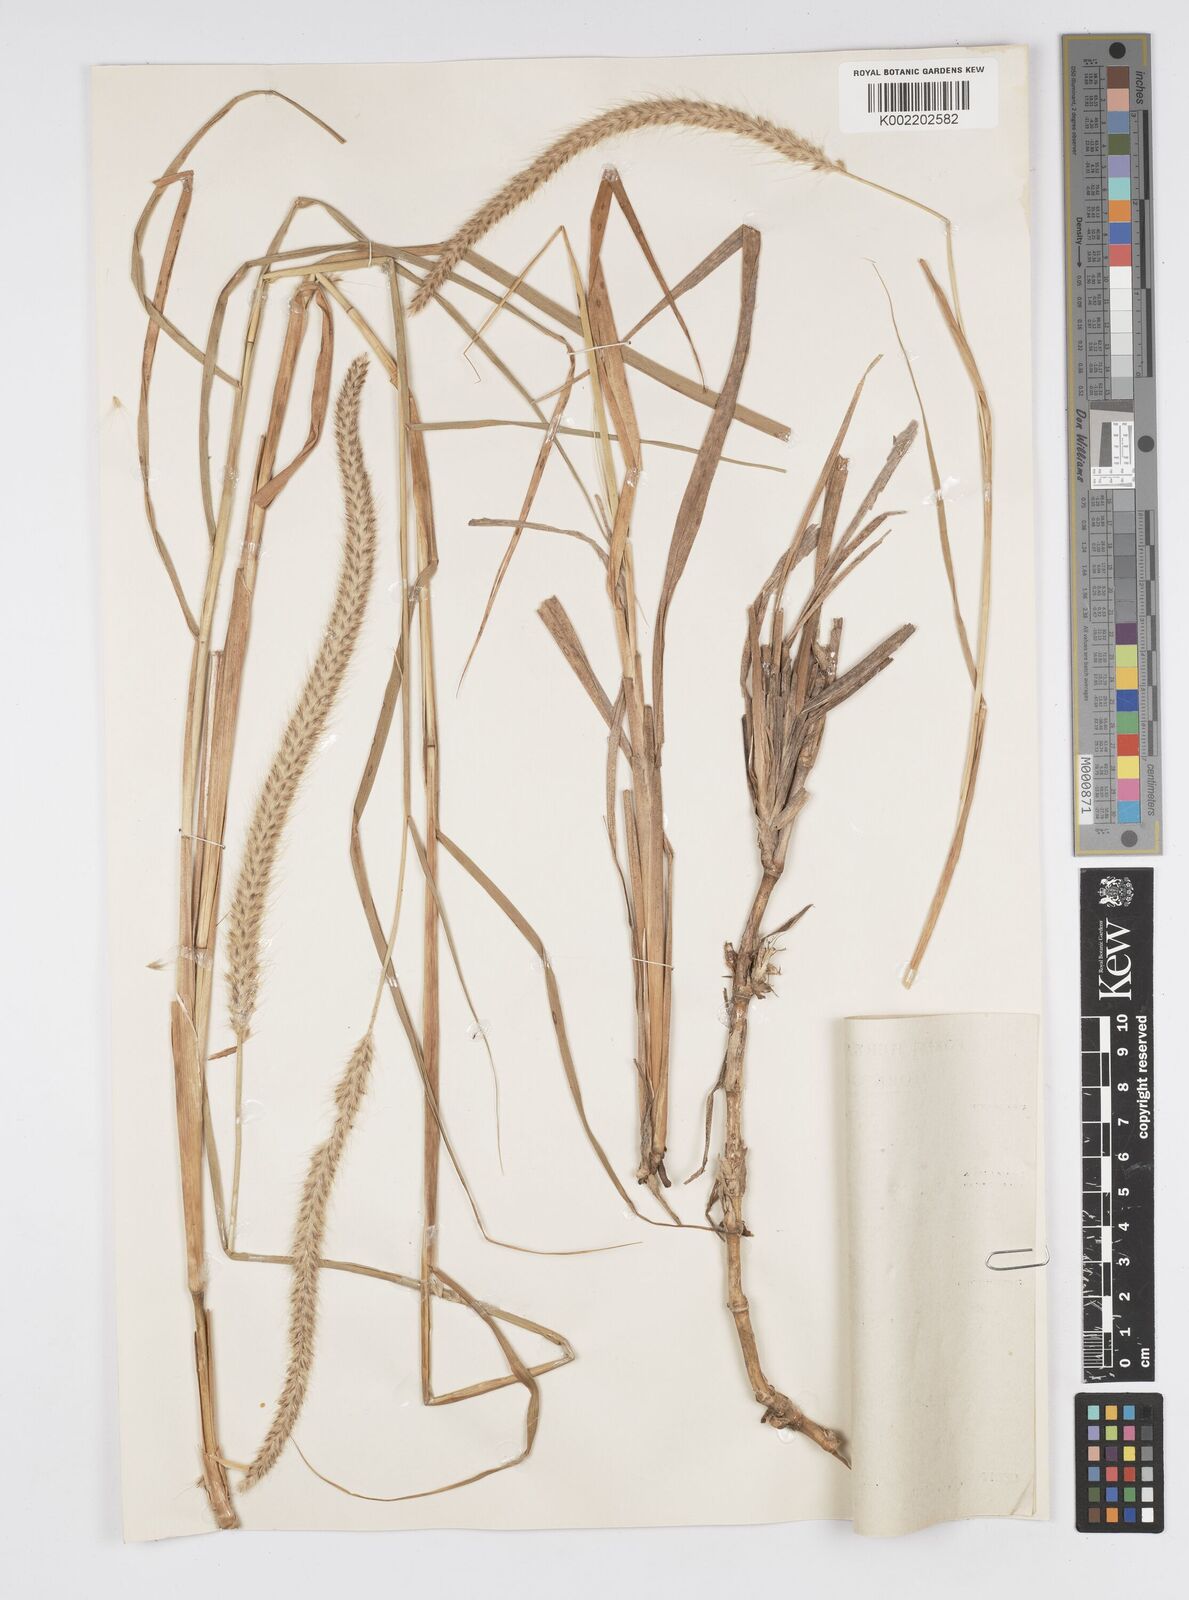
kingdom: Plantae
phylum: Tracheophyta
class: Liliopsida
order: Poales
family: Poaceae
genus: Setaria
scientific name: Setaria parviflora
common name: Knotroot bristle-grass
